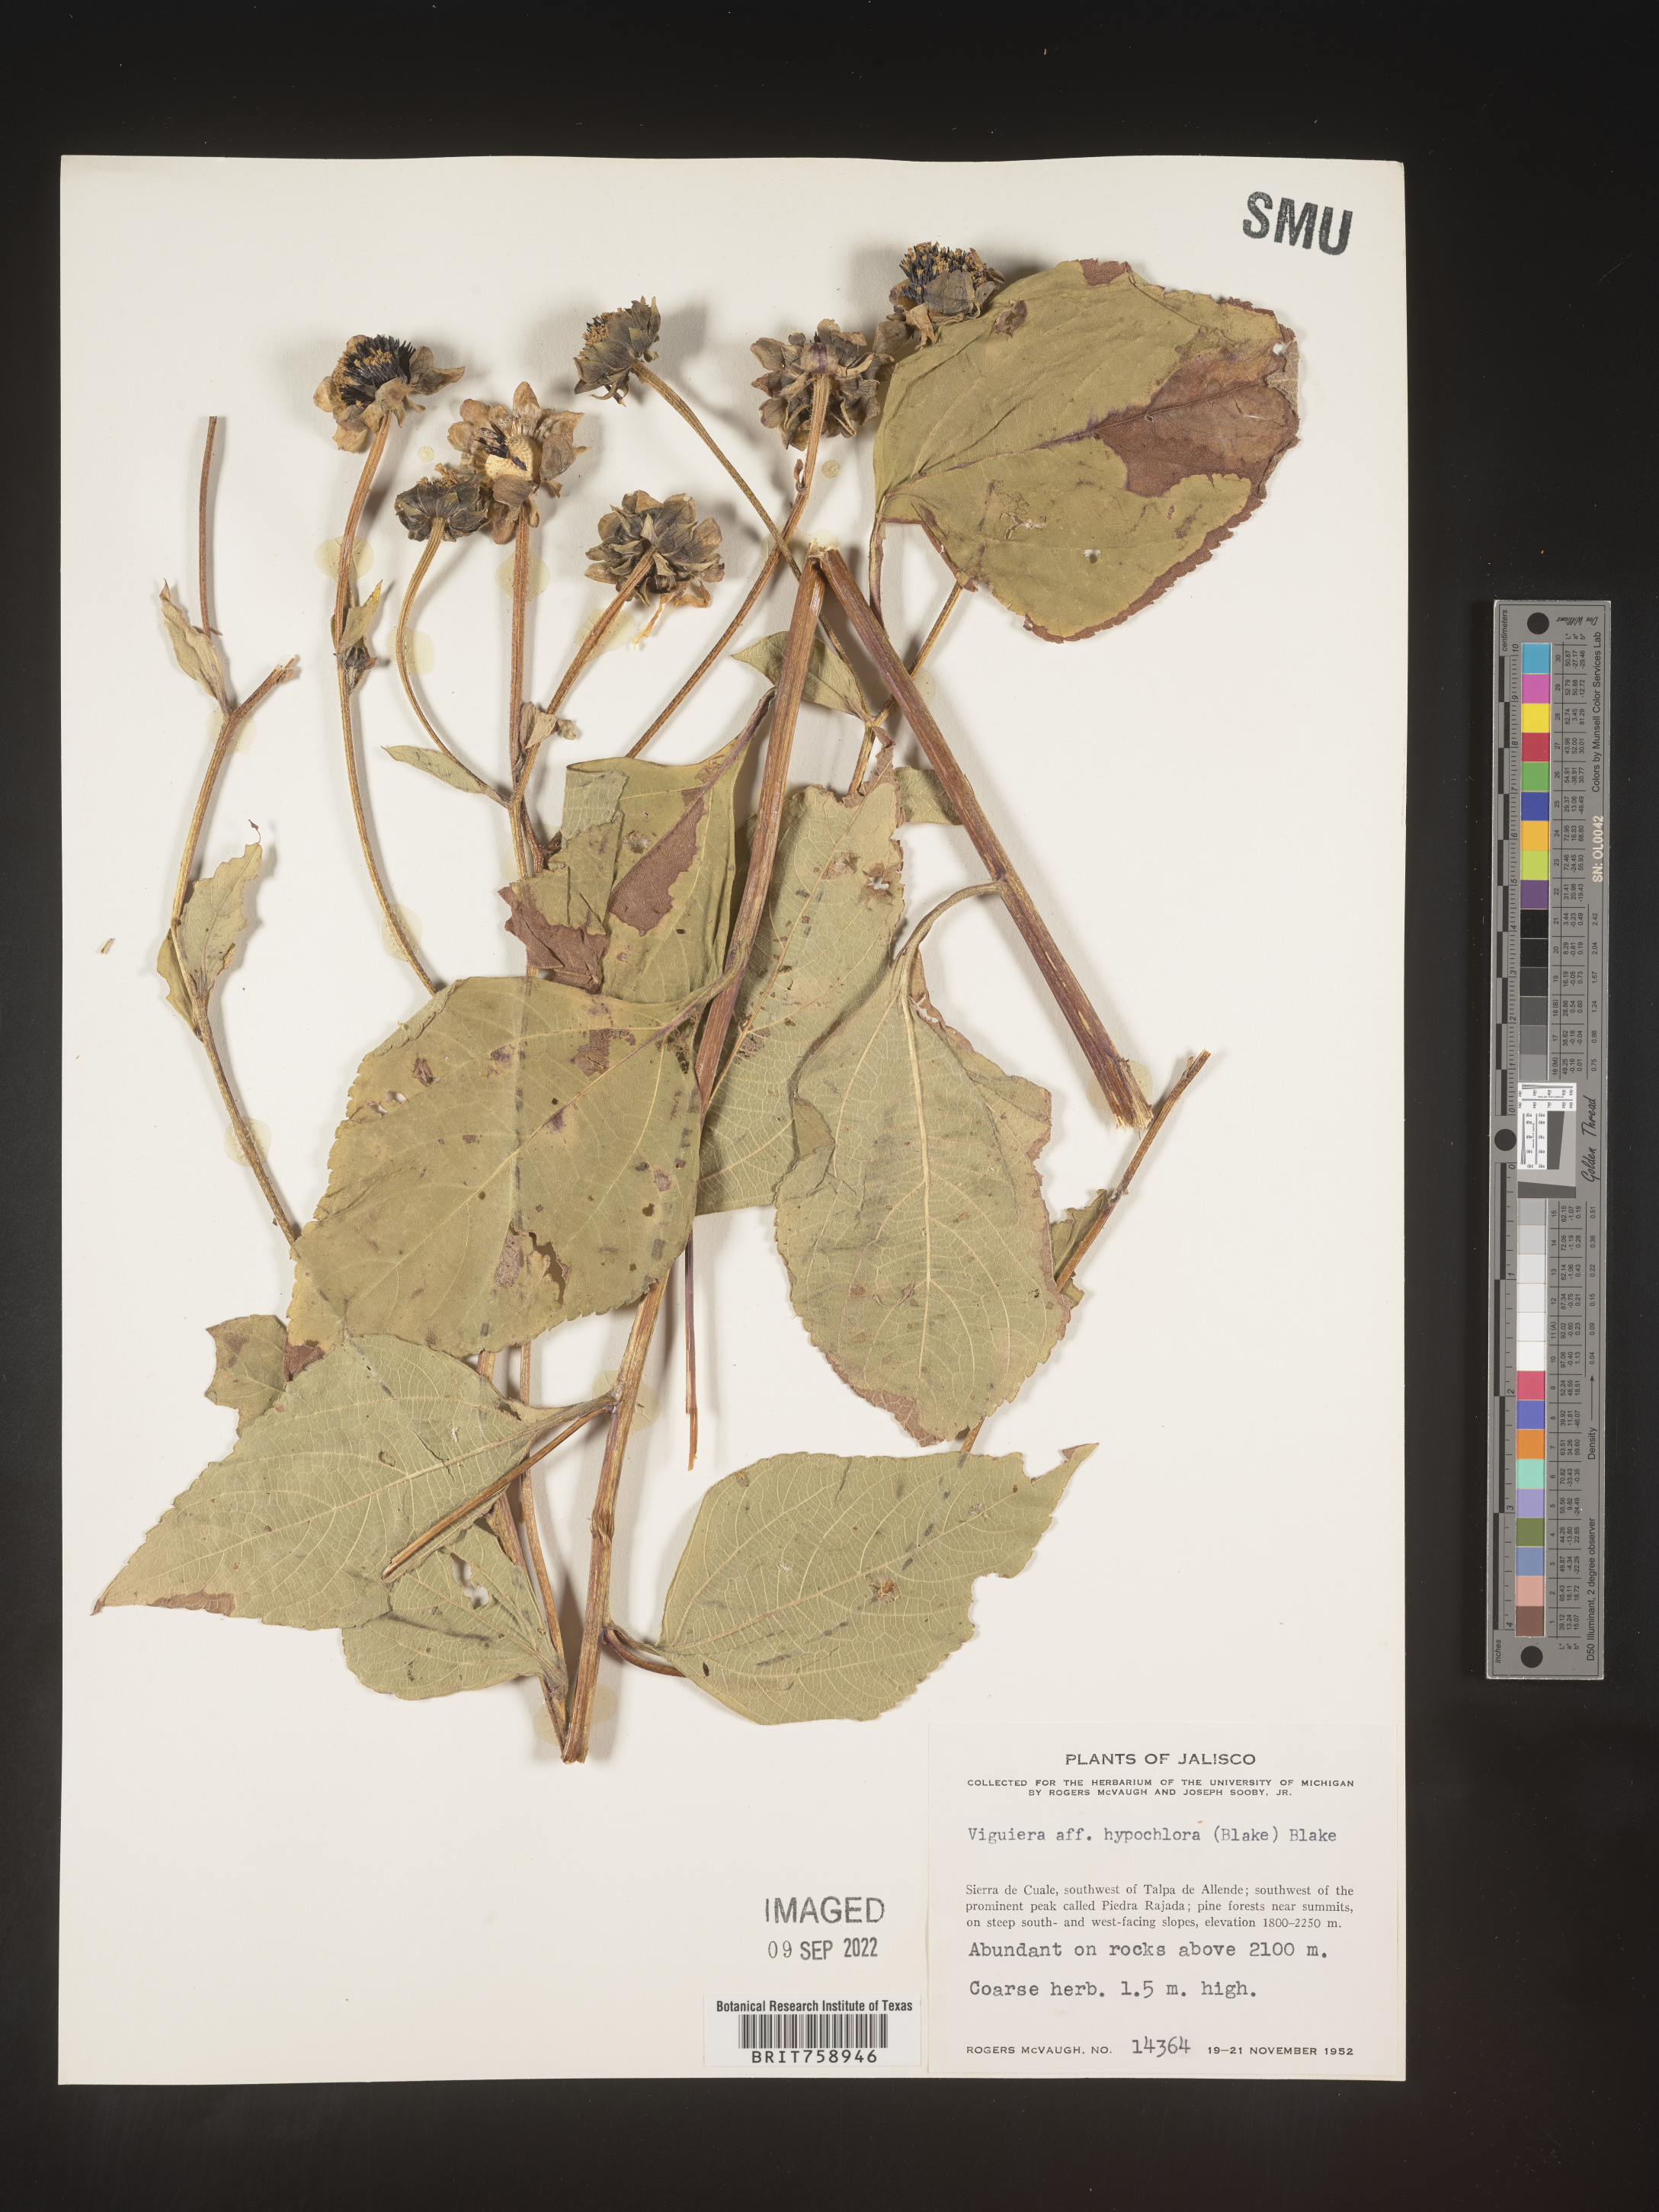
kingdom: Plantae
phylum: Tracheophyta
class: Magnoliopsida
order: Asterales
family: Asteraceae
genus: Viguiera
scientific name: Viguiera
